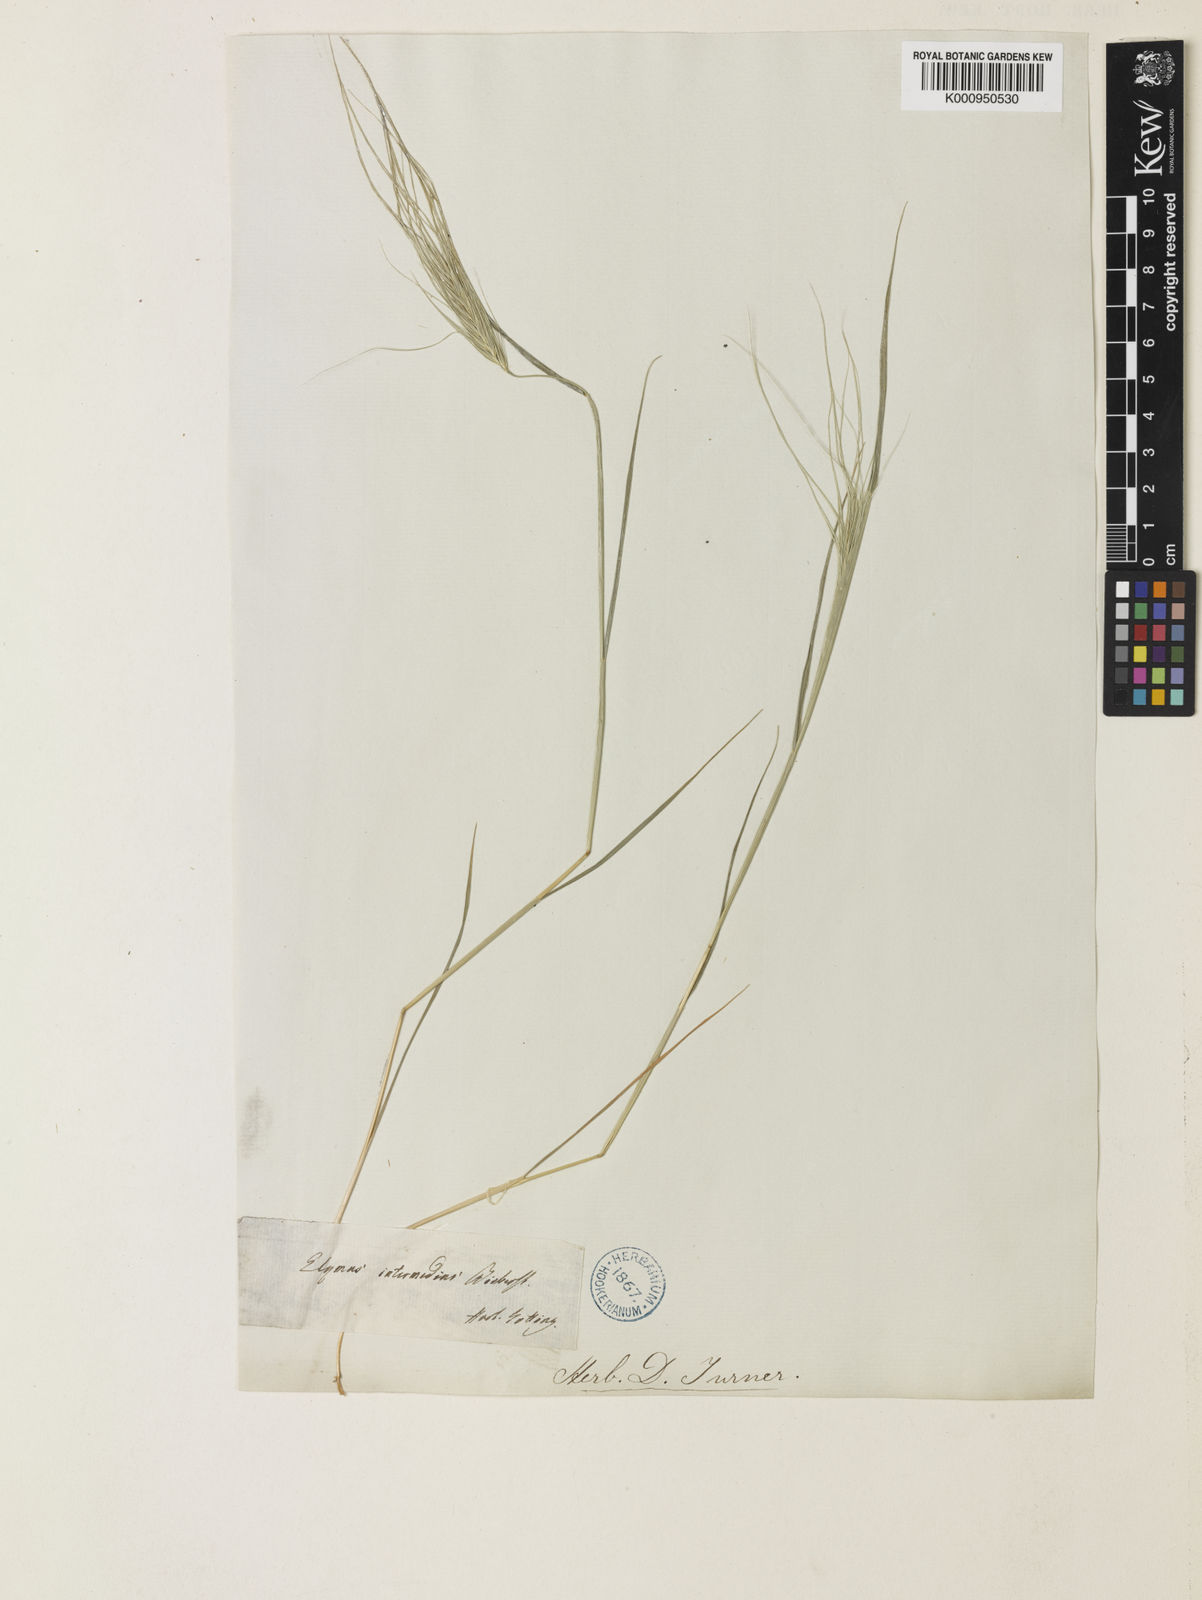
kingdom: Plantae
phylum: Tracheophyta
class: Liliopsida
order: Poales
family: Poaceae
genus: Taeniatherum
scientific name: Taeniatherum caput-medusae
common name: Medusahead
